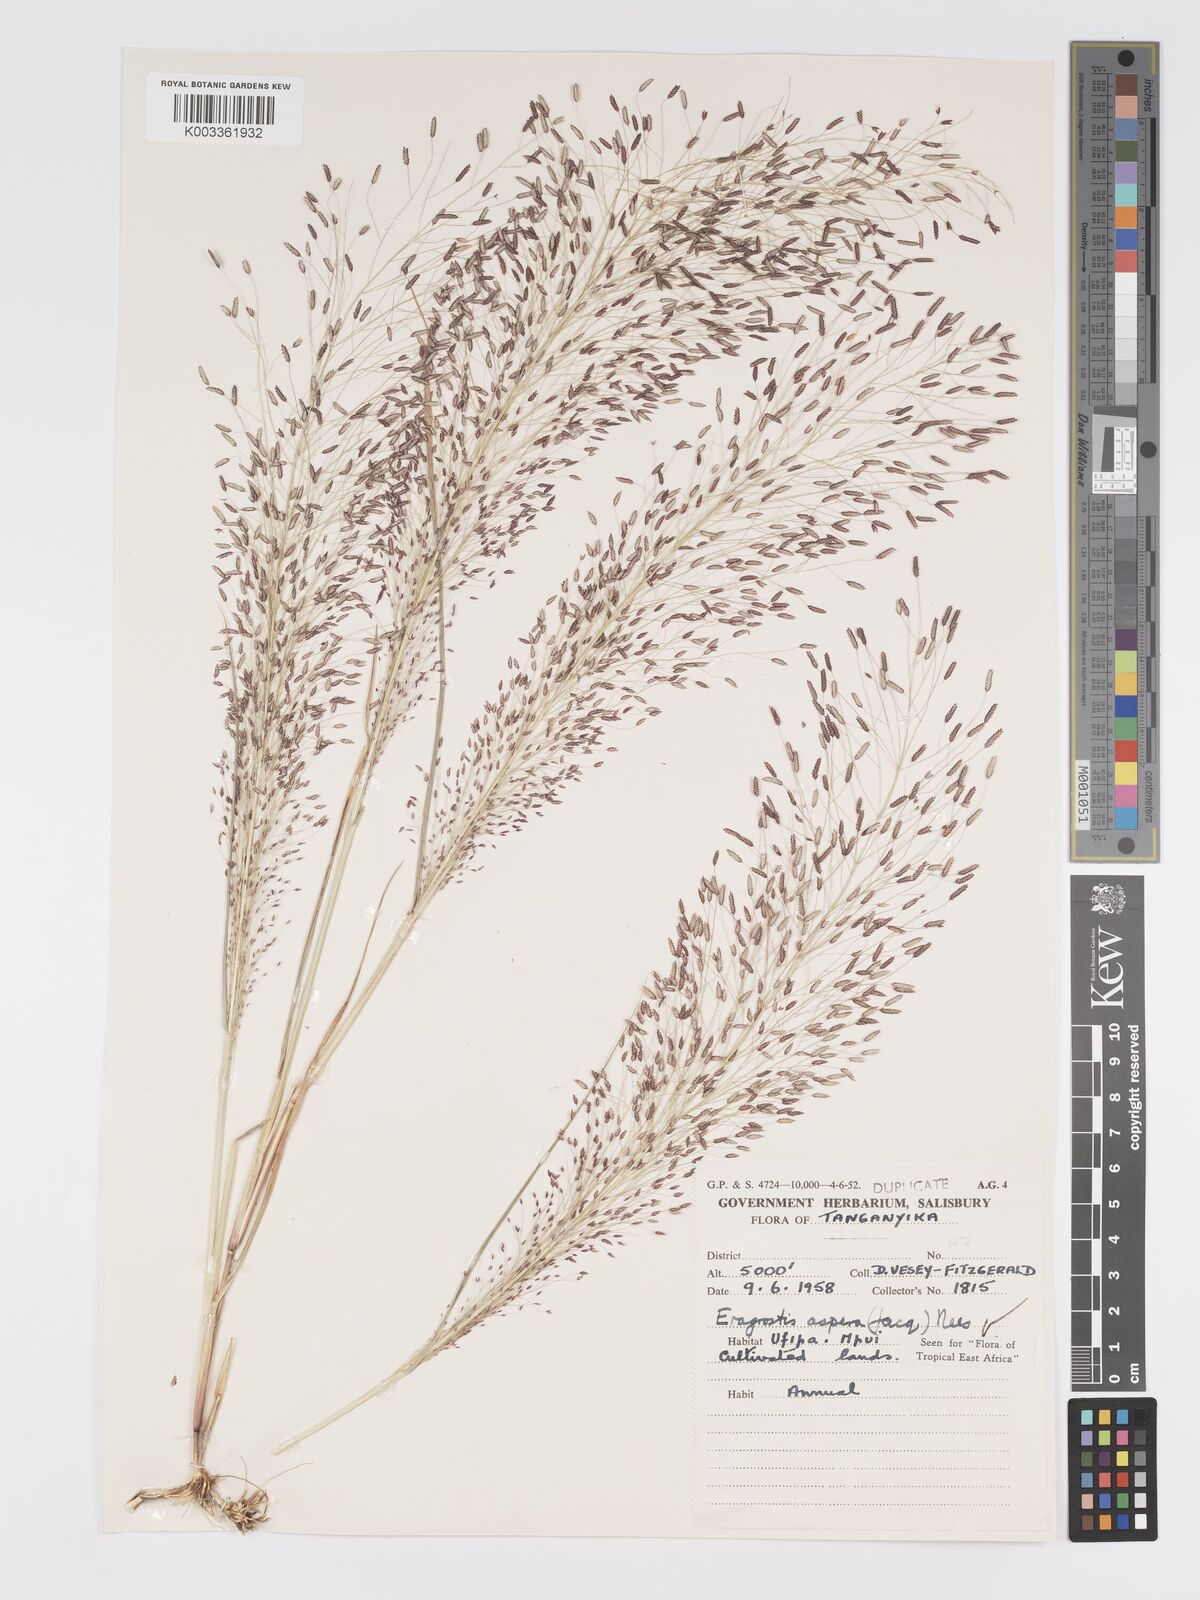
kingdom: Plantae
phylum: Tracheophyta
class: Liliopsida
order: Poales
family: Poaceae
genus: Eragrostis
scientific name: Eragrostis aspera
